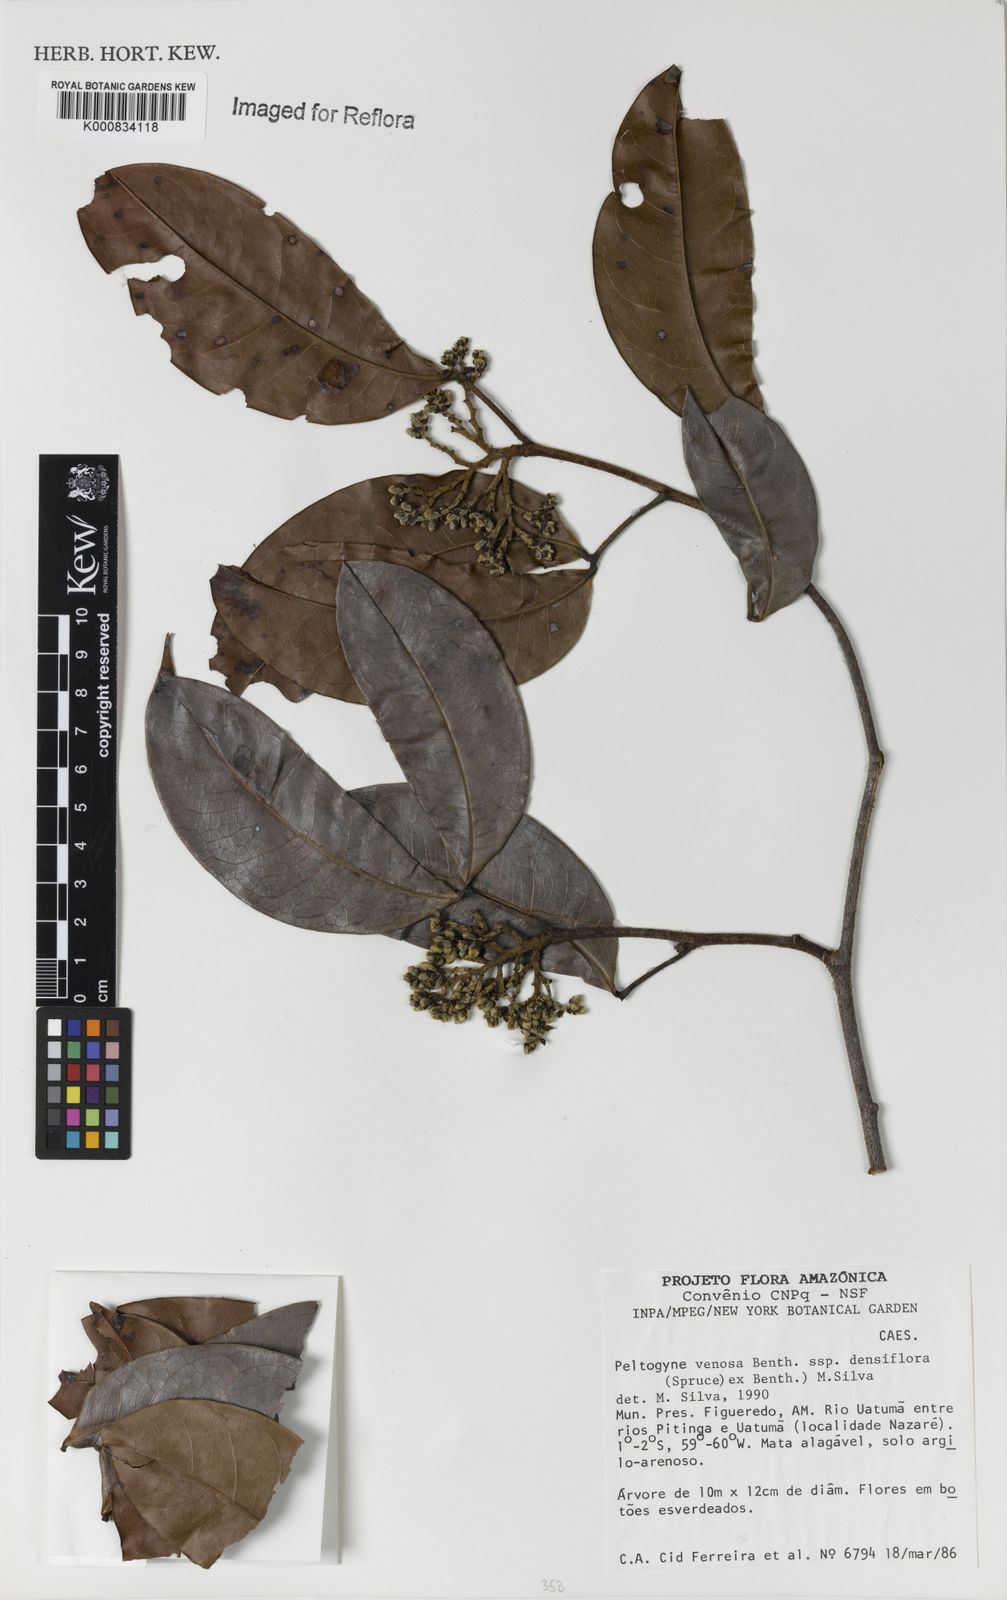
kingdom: Plantae
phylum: Tracheophyta
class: Magnoliopsida
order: Fabales
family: Fabaceae
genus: Peltogyne
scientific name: Peltogyne venosa
